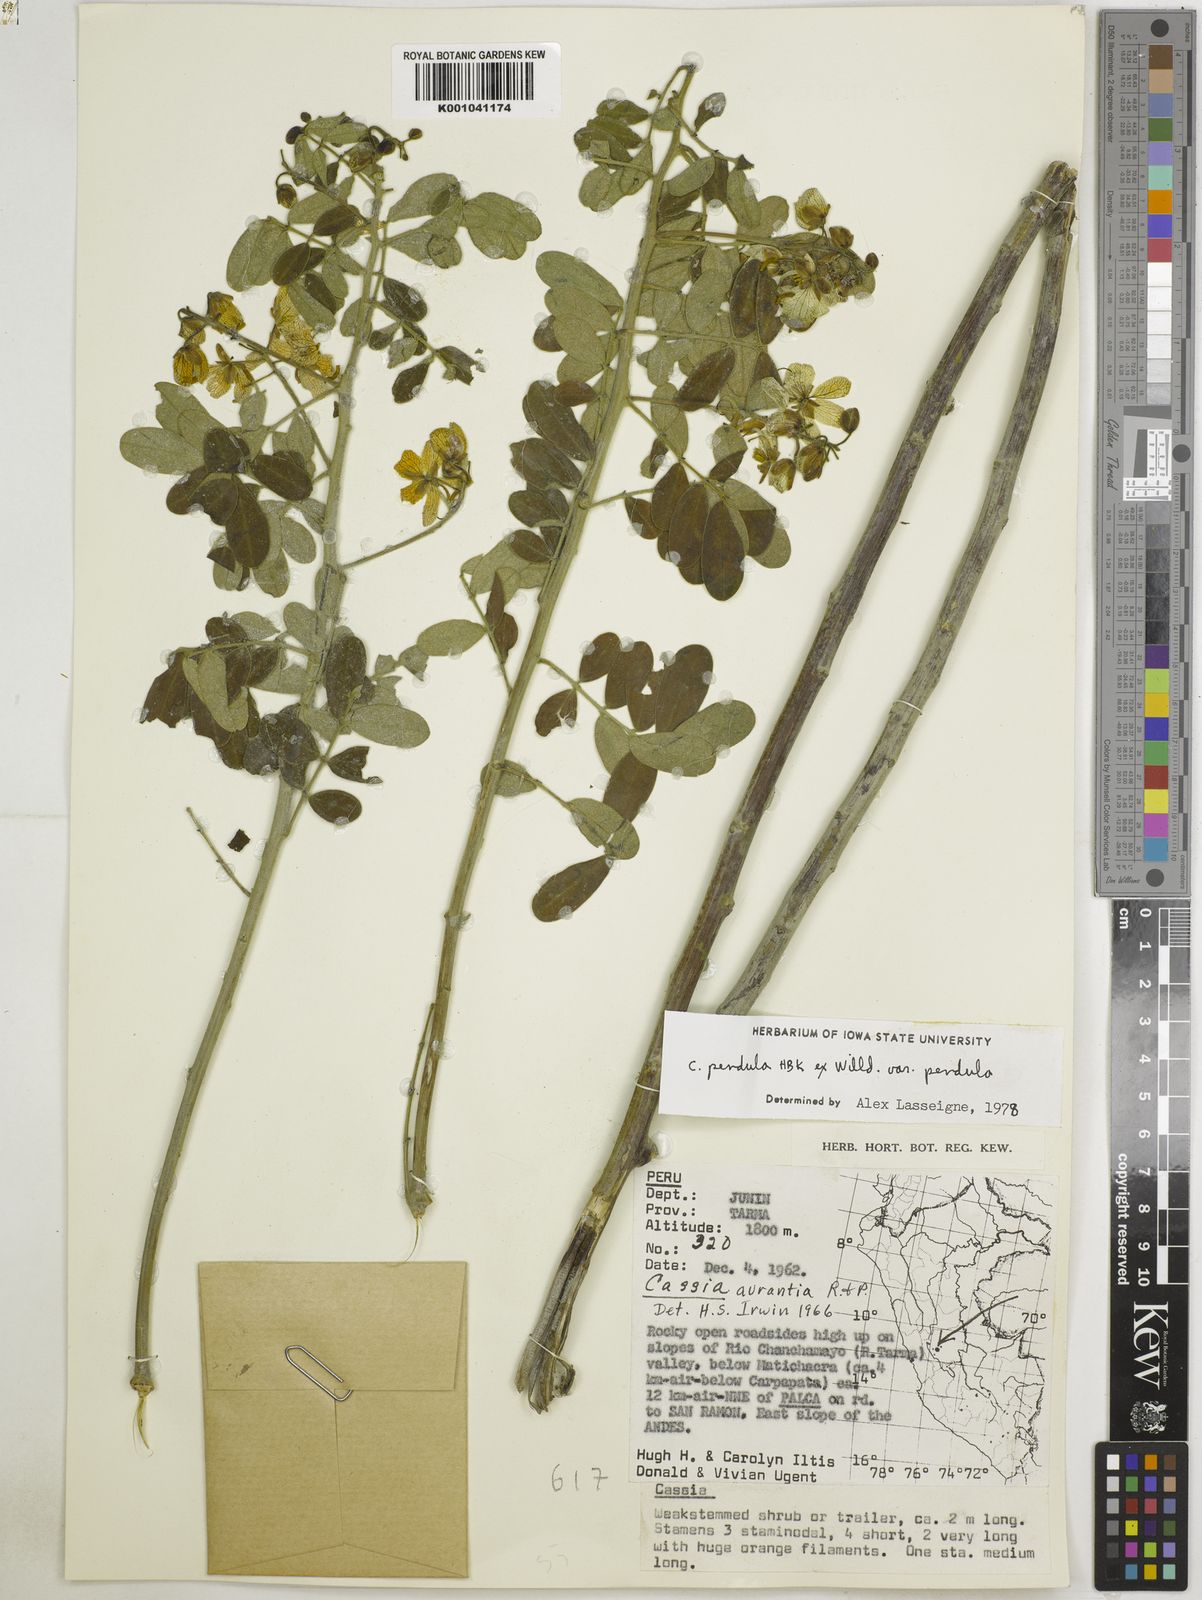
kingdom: Plantae
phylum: Tracheophyta
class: Magnoliopsida
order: Fabales
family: Fabaceae
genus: Senna
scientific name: Senna pendula
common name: Easter cassia
